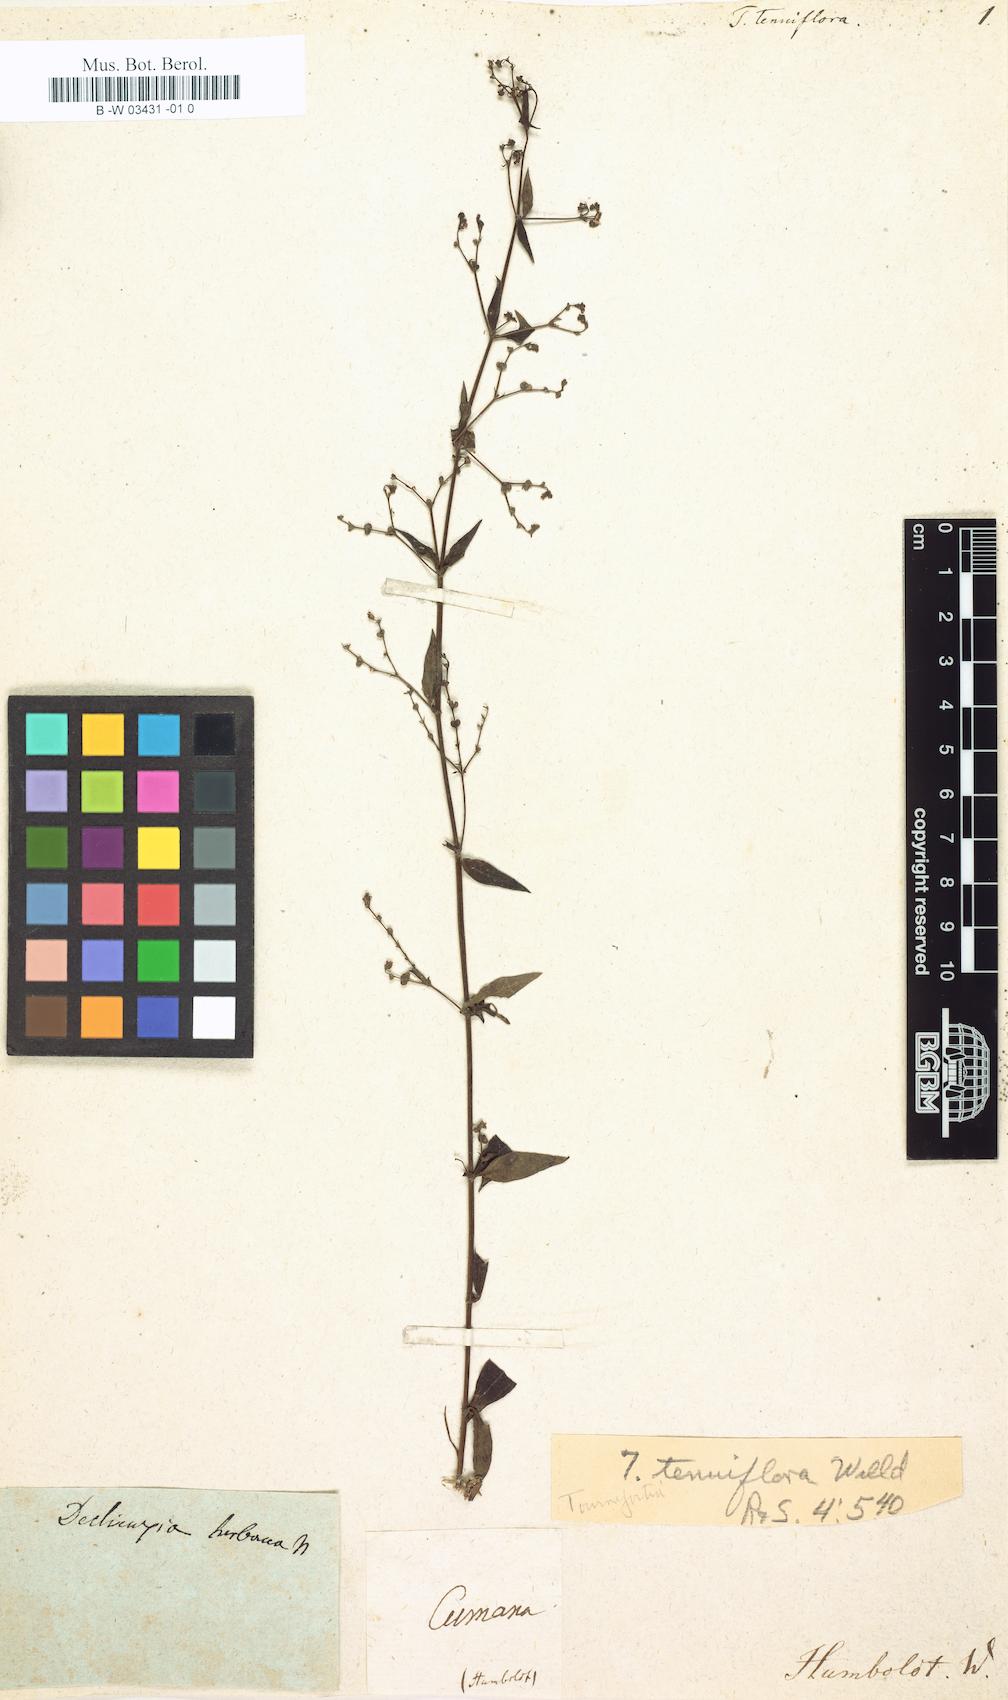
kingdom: Plantae
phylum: Tracheophyta
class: Magnoliopsida
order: Gentianales
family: Rubiaceae
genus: Declieuxia
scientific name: Declieuxia tenuiflora
